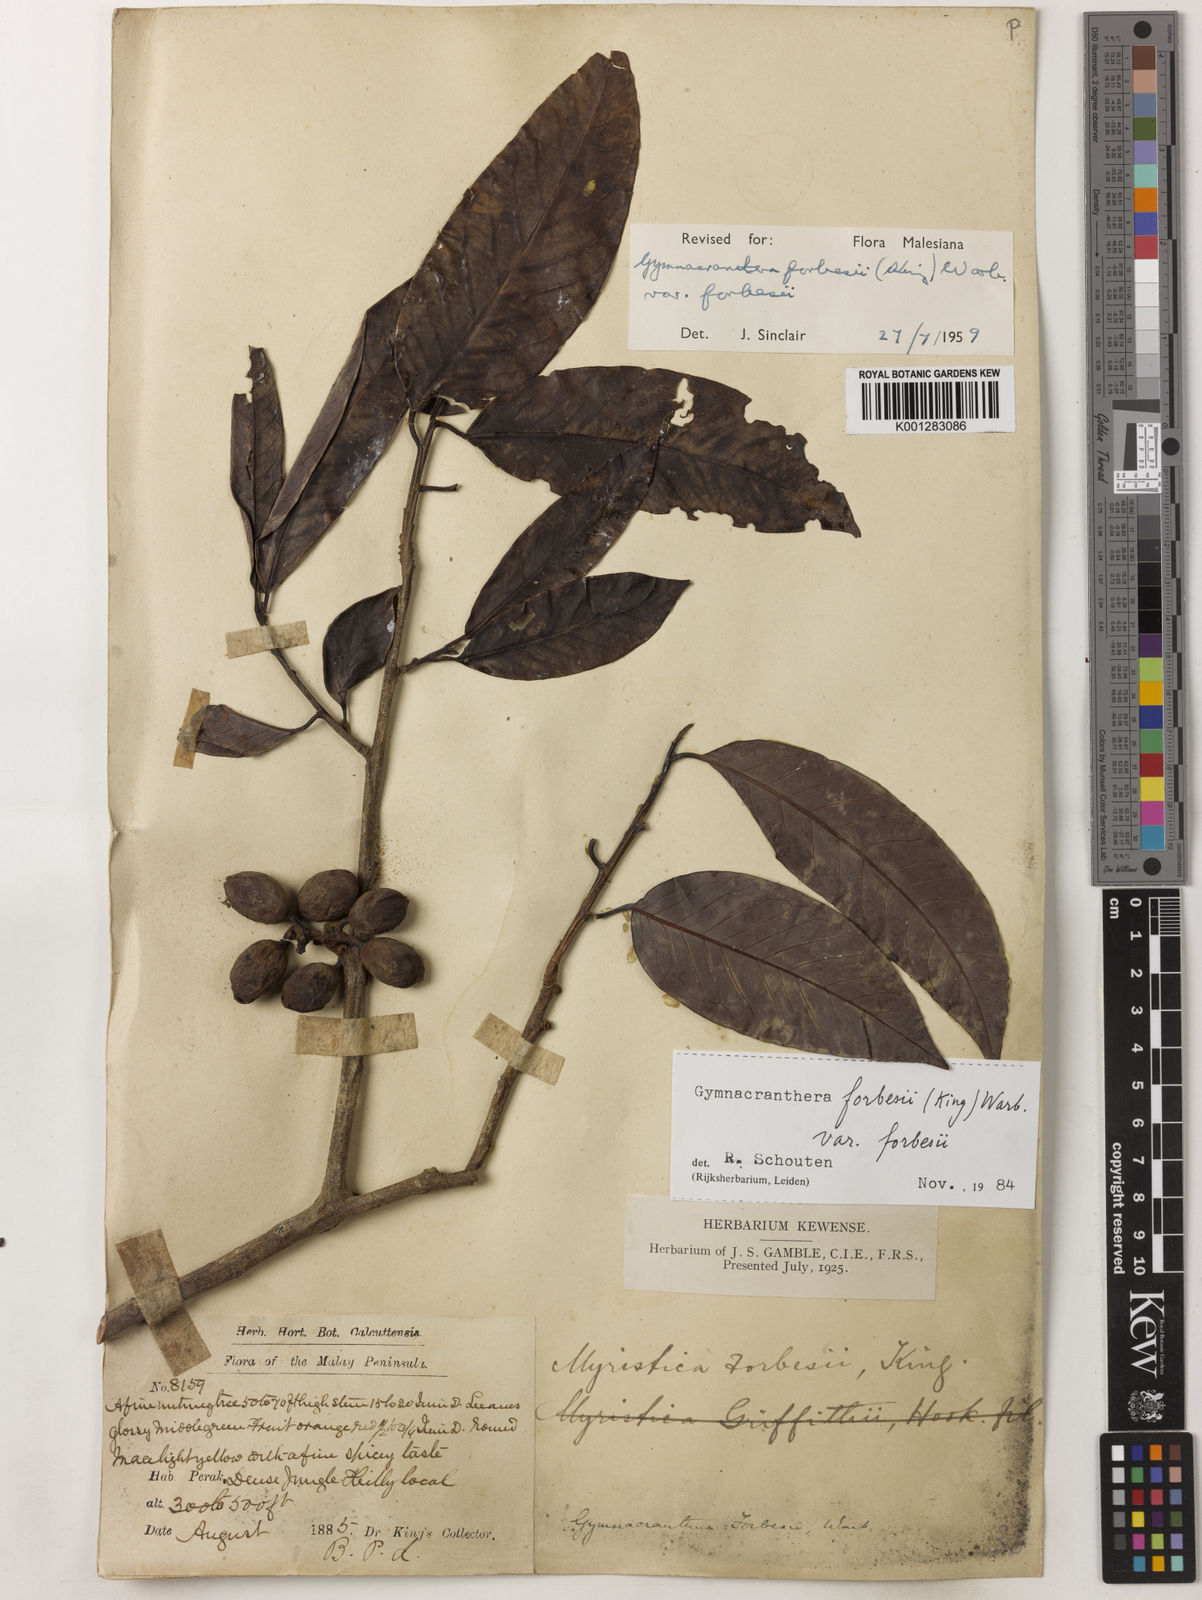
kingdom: Plantae
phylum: Tracheophyta
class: Magnoliopsida
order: Magnoliales
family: Myristicaceae
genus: Gymnacranthera
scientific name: Gymnacranthera forbesii
